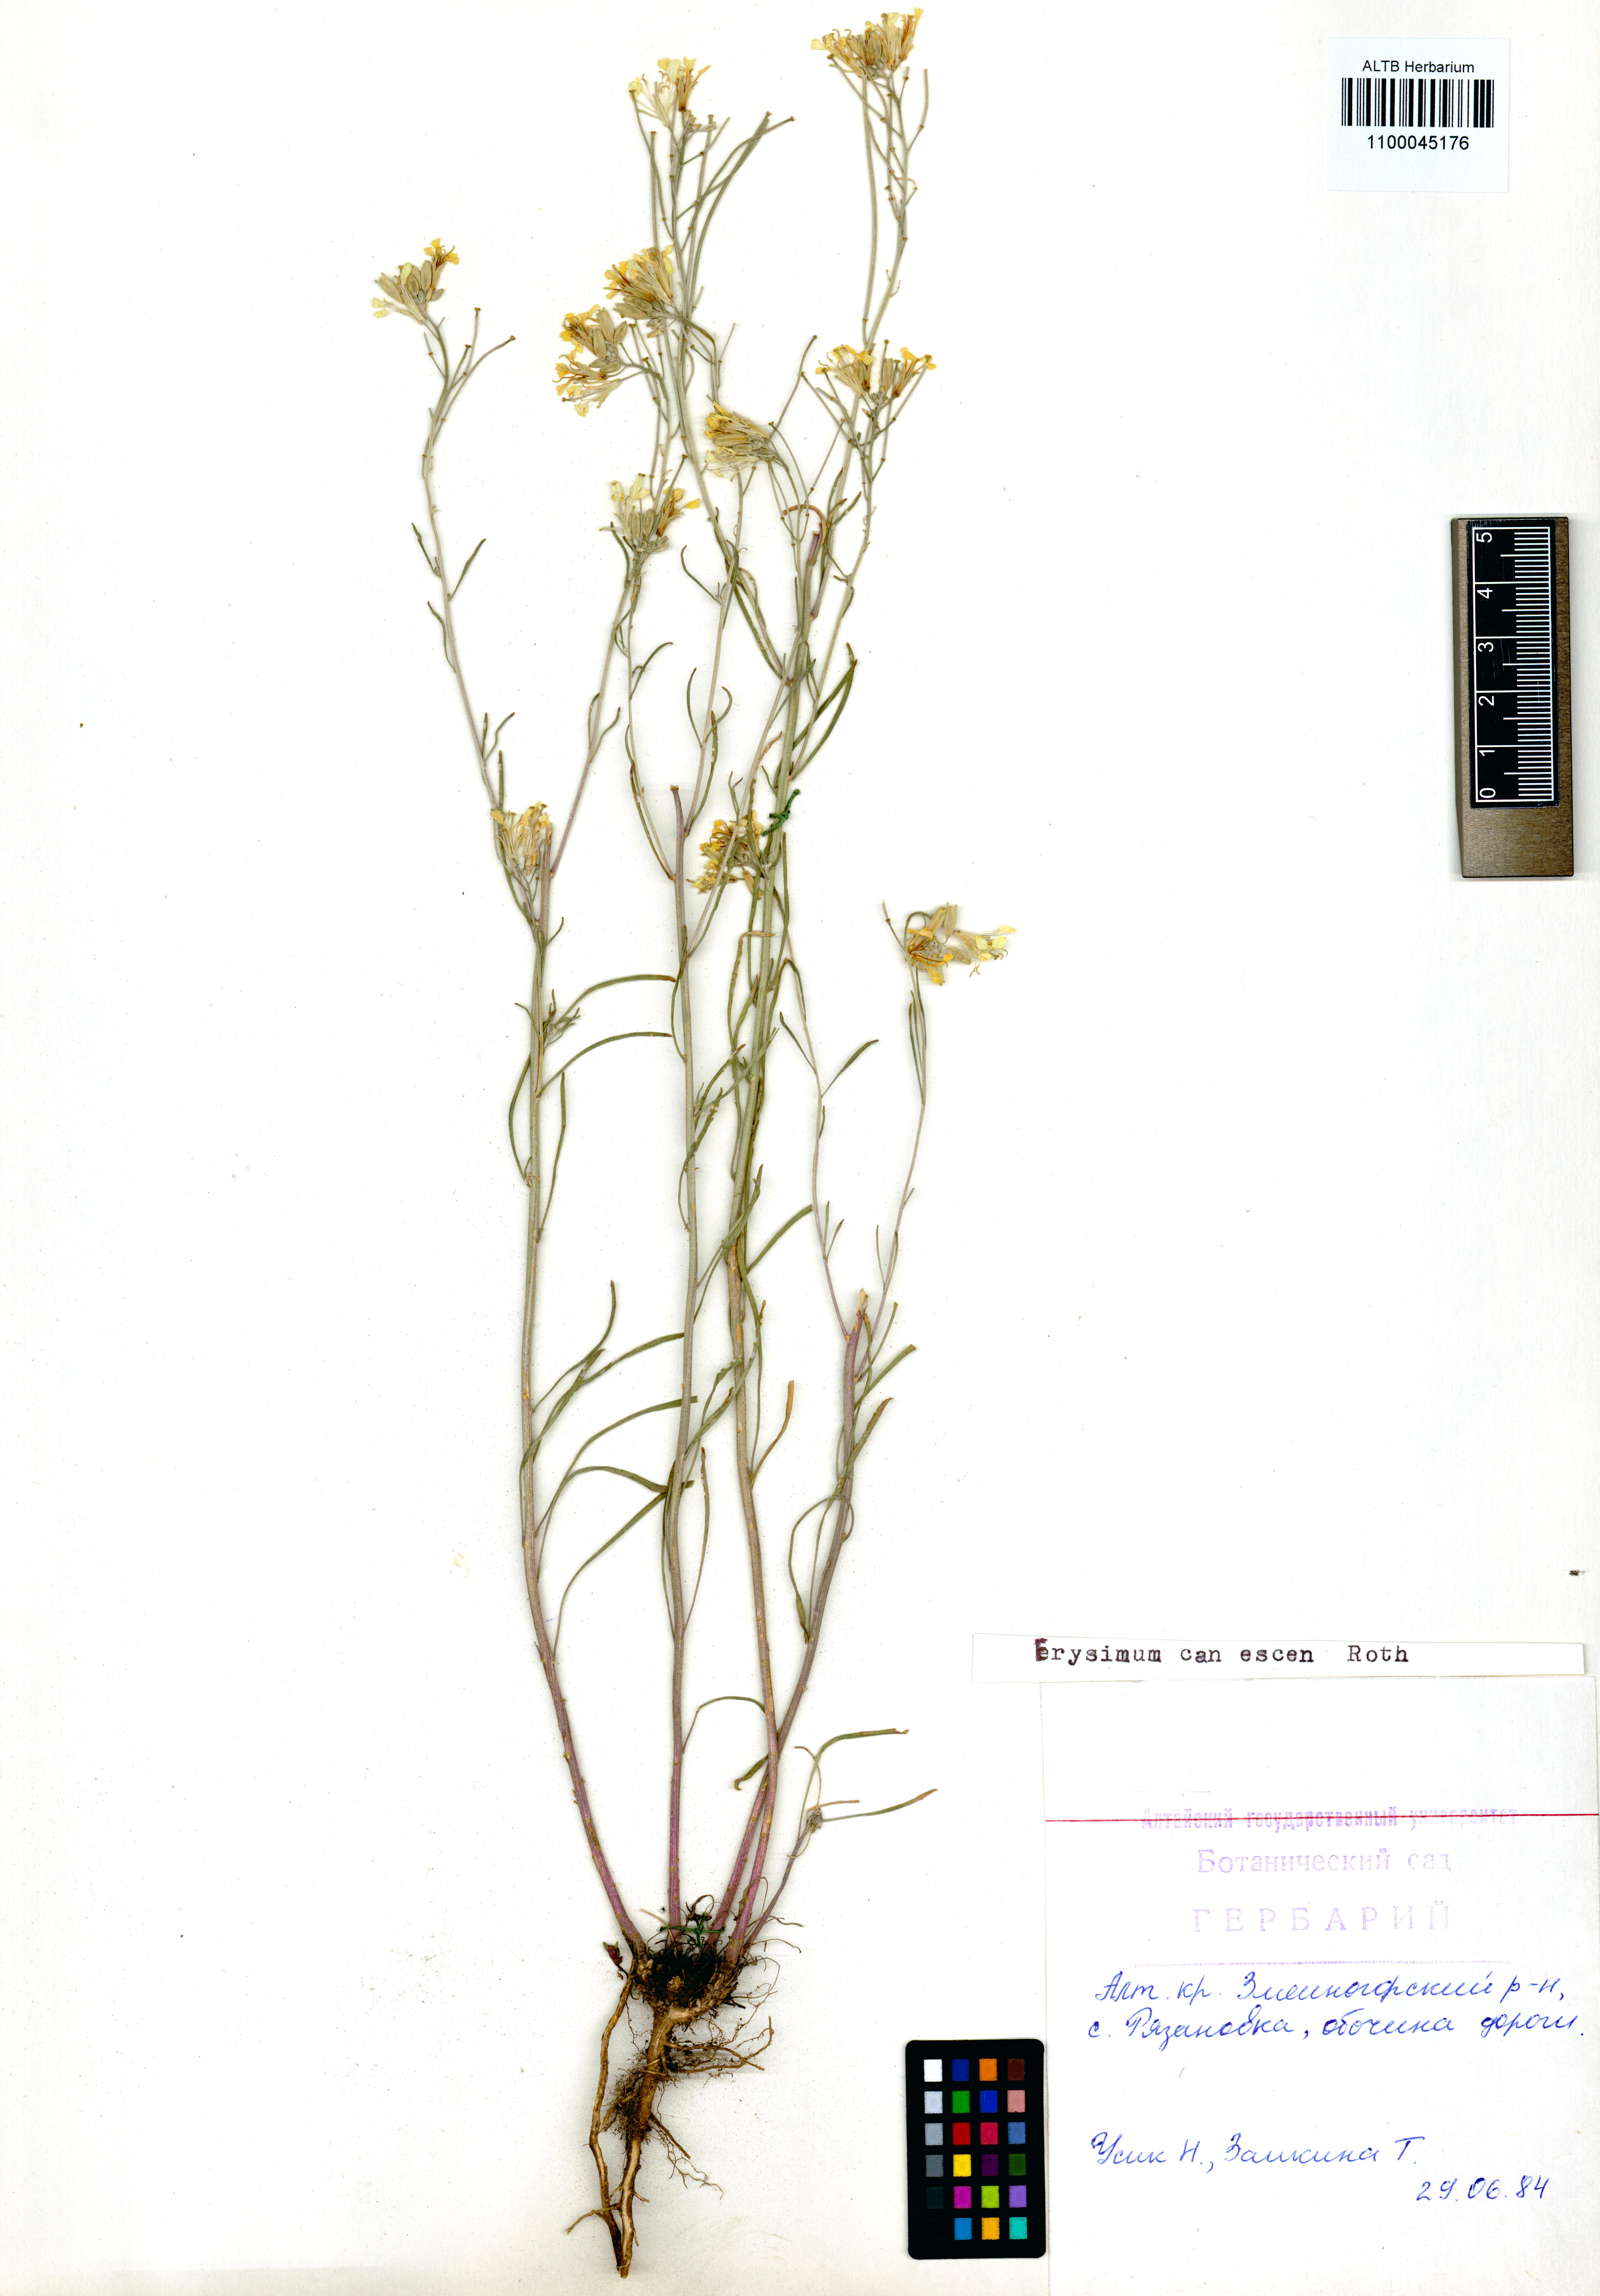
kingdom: Plantae
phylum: Tracheophyta
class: Magnoliopsida
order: Brassicales
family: Brassicaceae
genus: Erysimum
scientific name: Erysimum canescens
